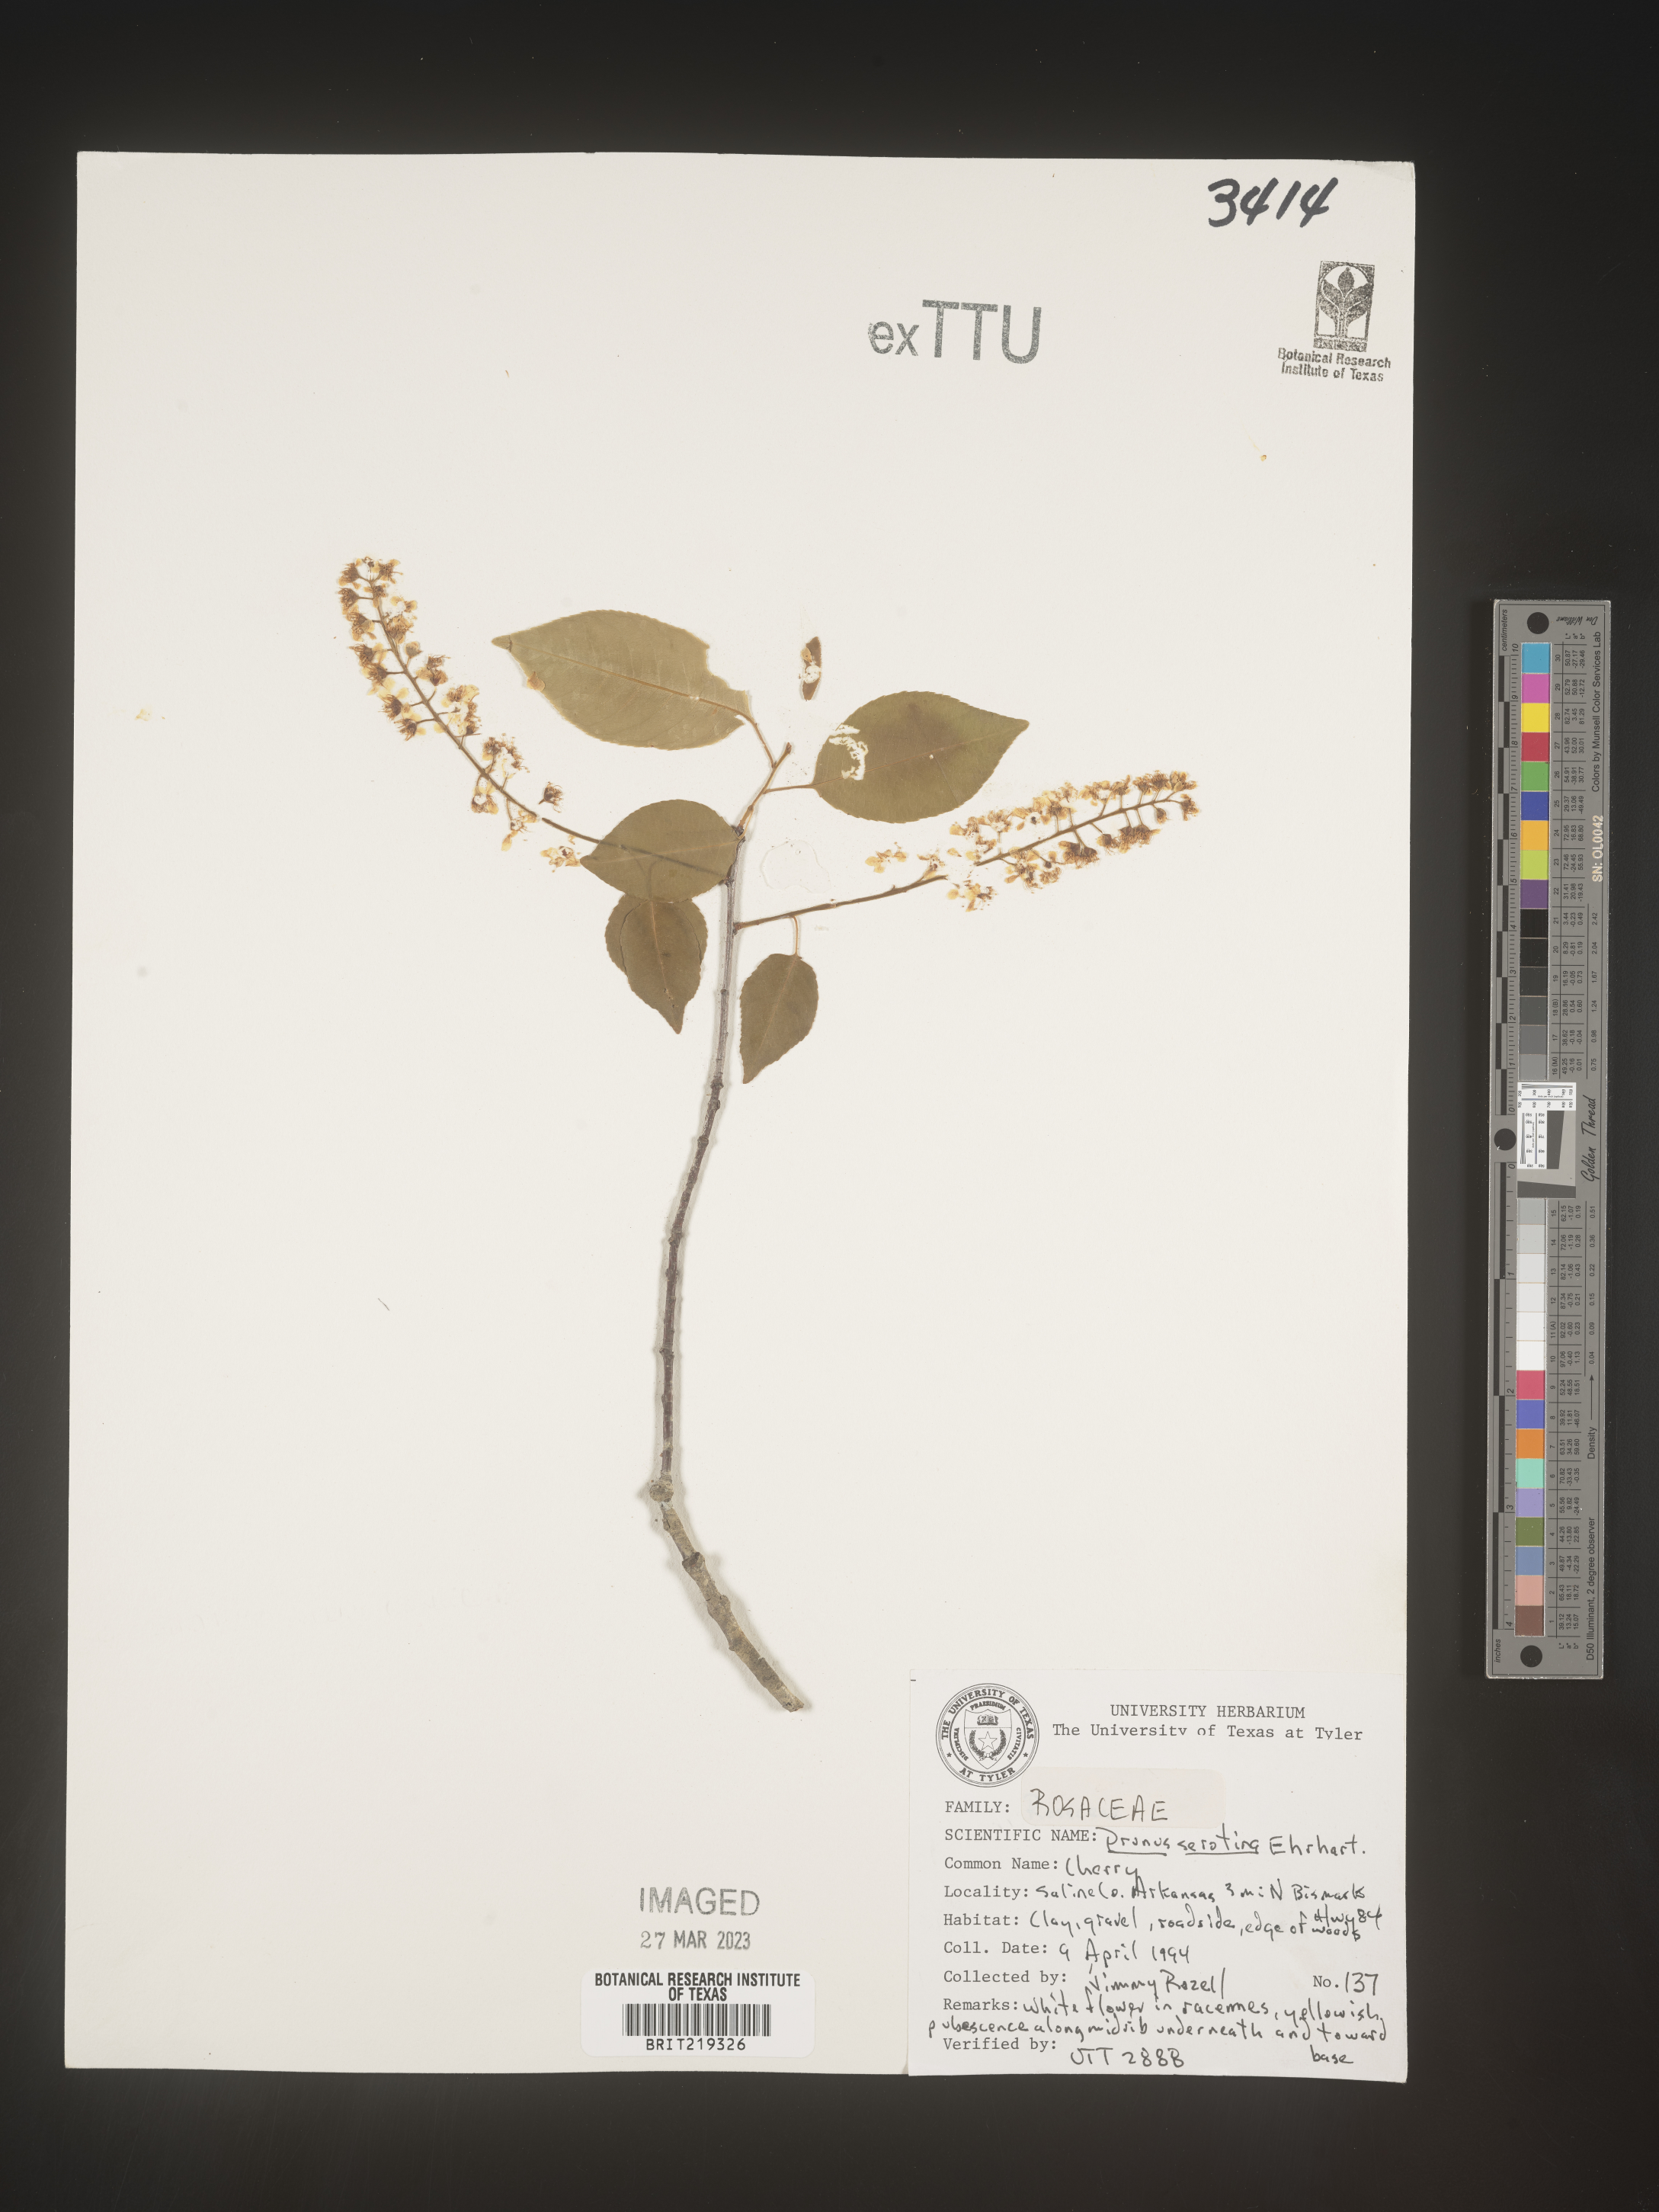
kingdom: Plantae
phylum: Tracheophyta
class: Magnoliopsida
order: Rosales
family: Rosaceae
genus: Prunus
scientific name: Prunus serotina
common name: Black cherry
